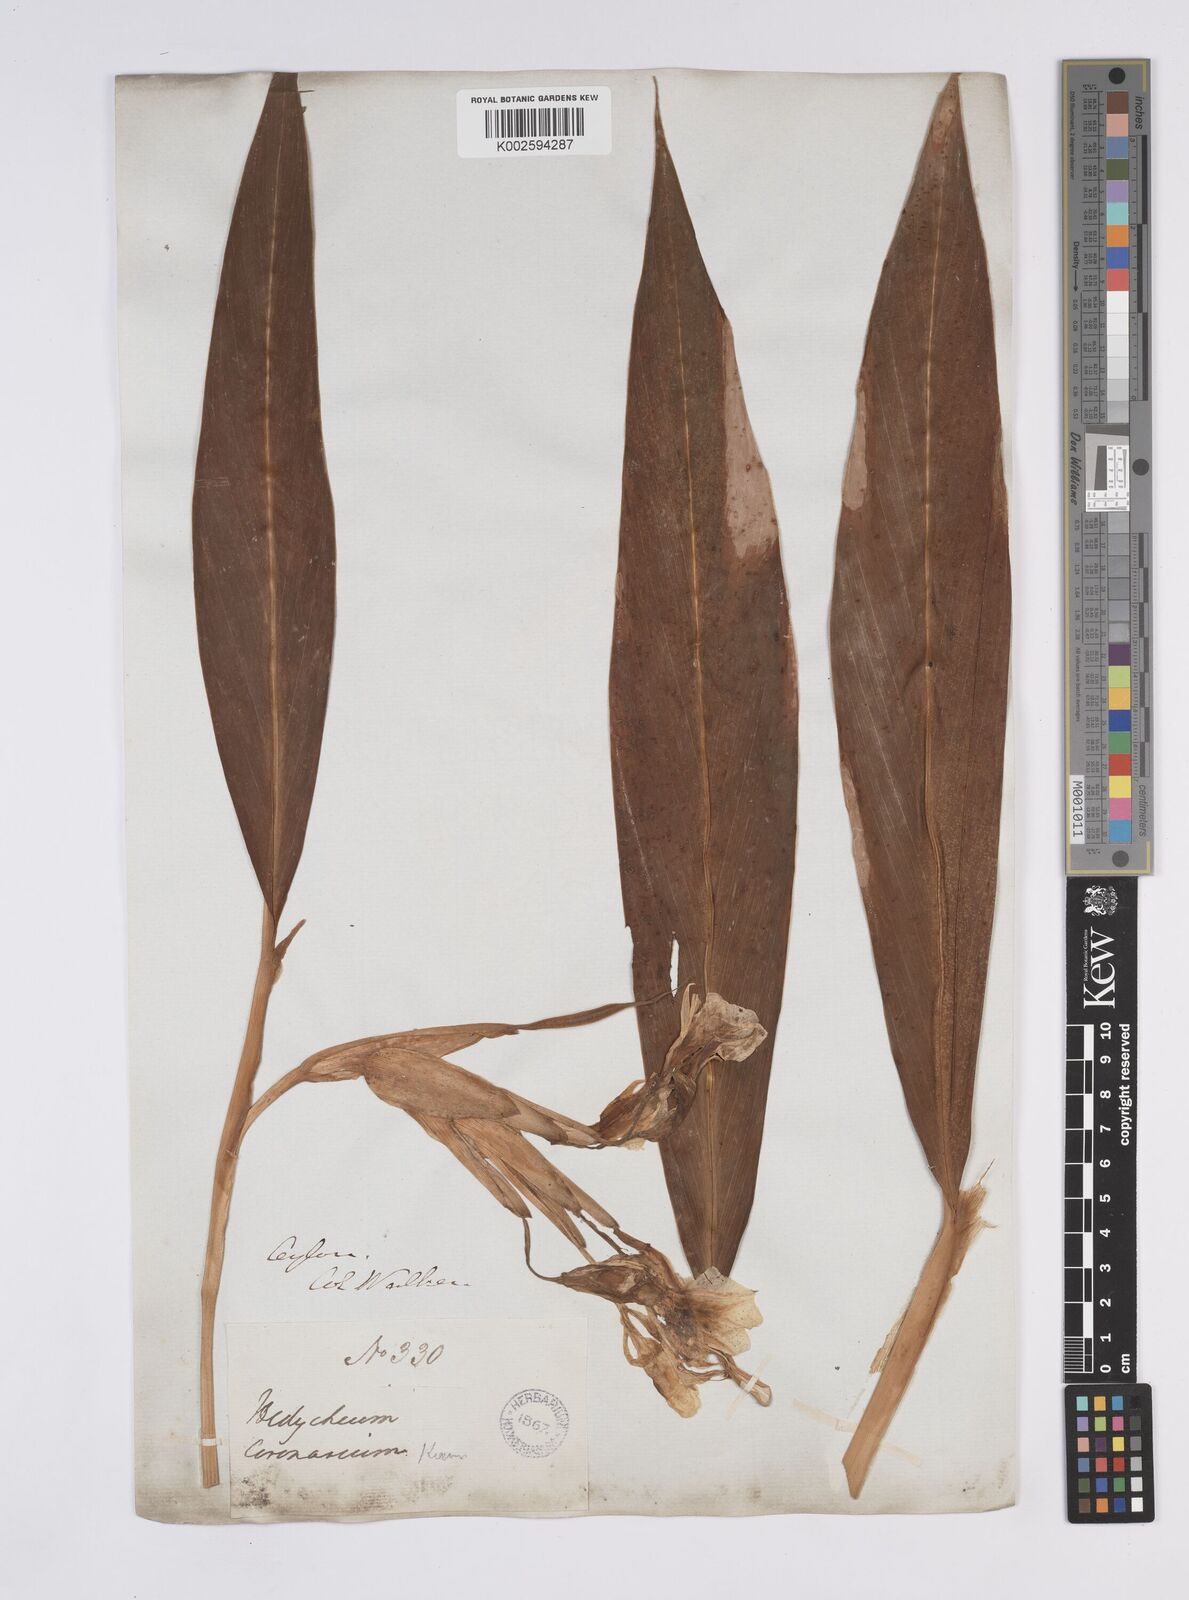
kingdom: Plantae
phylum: Tracheophyta
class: Liliopsida
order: Zingiberales
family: Zingiberaceae
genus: Hedychium
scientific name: Hedychium coronarium
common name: White garland-lily
